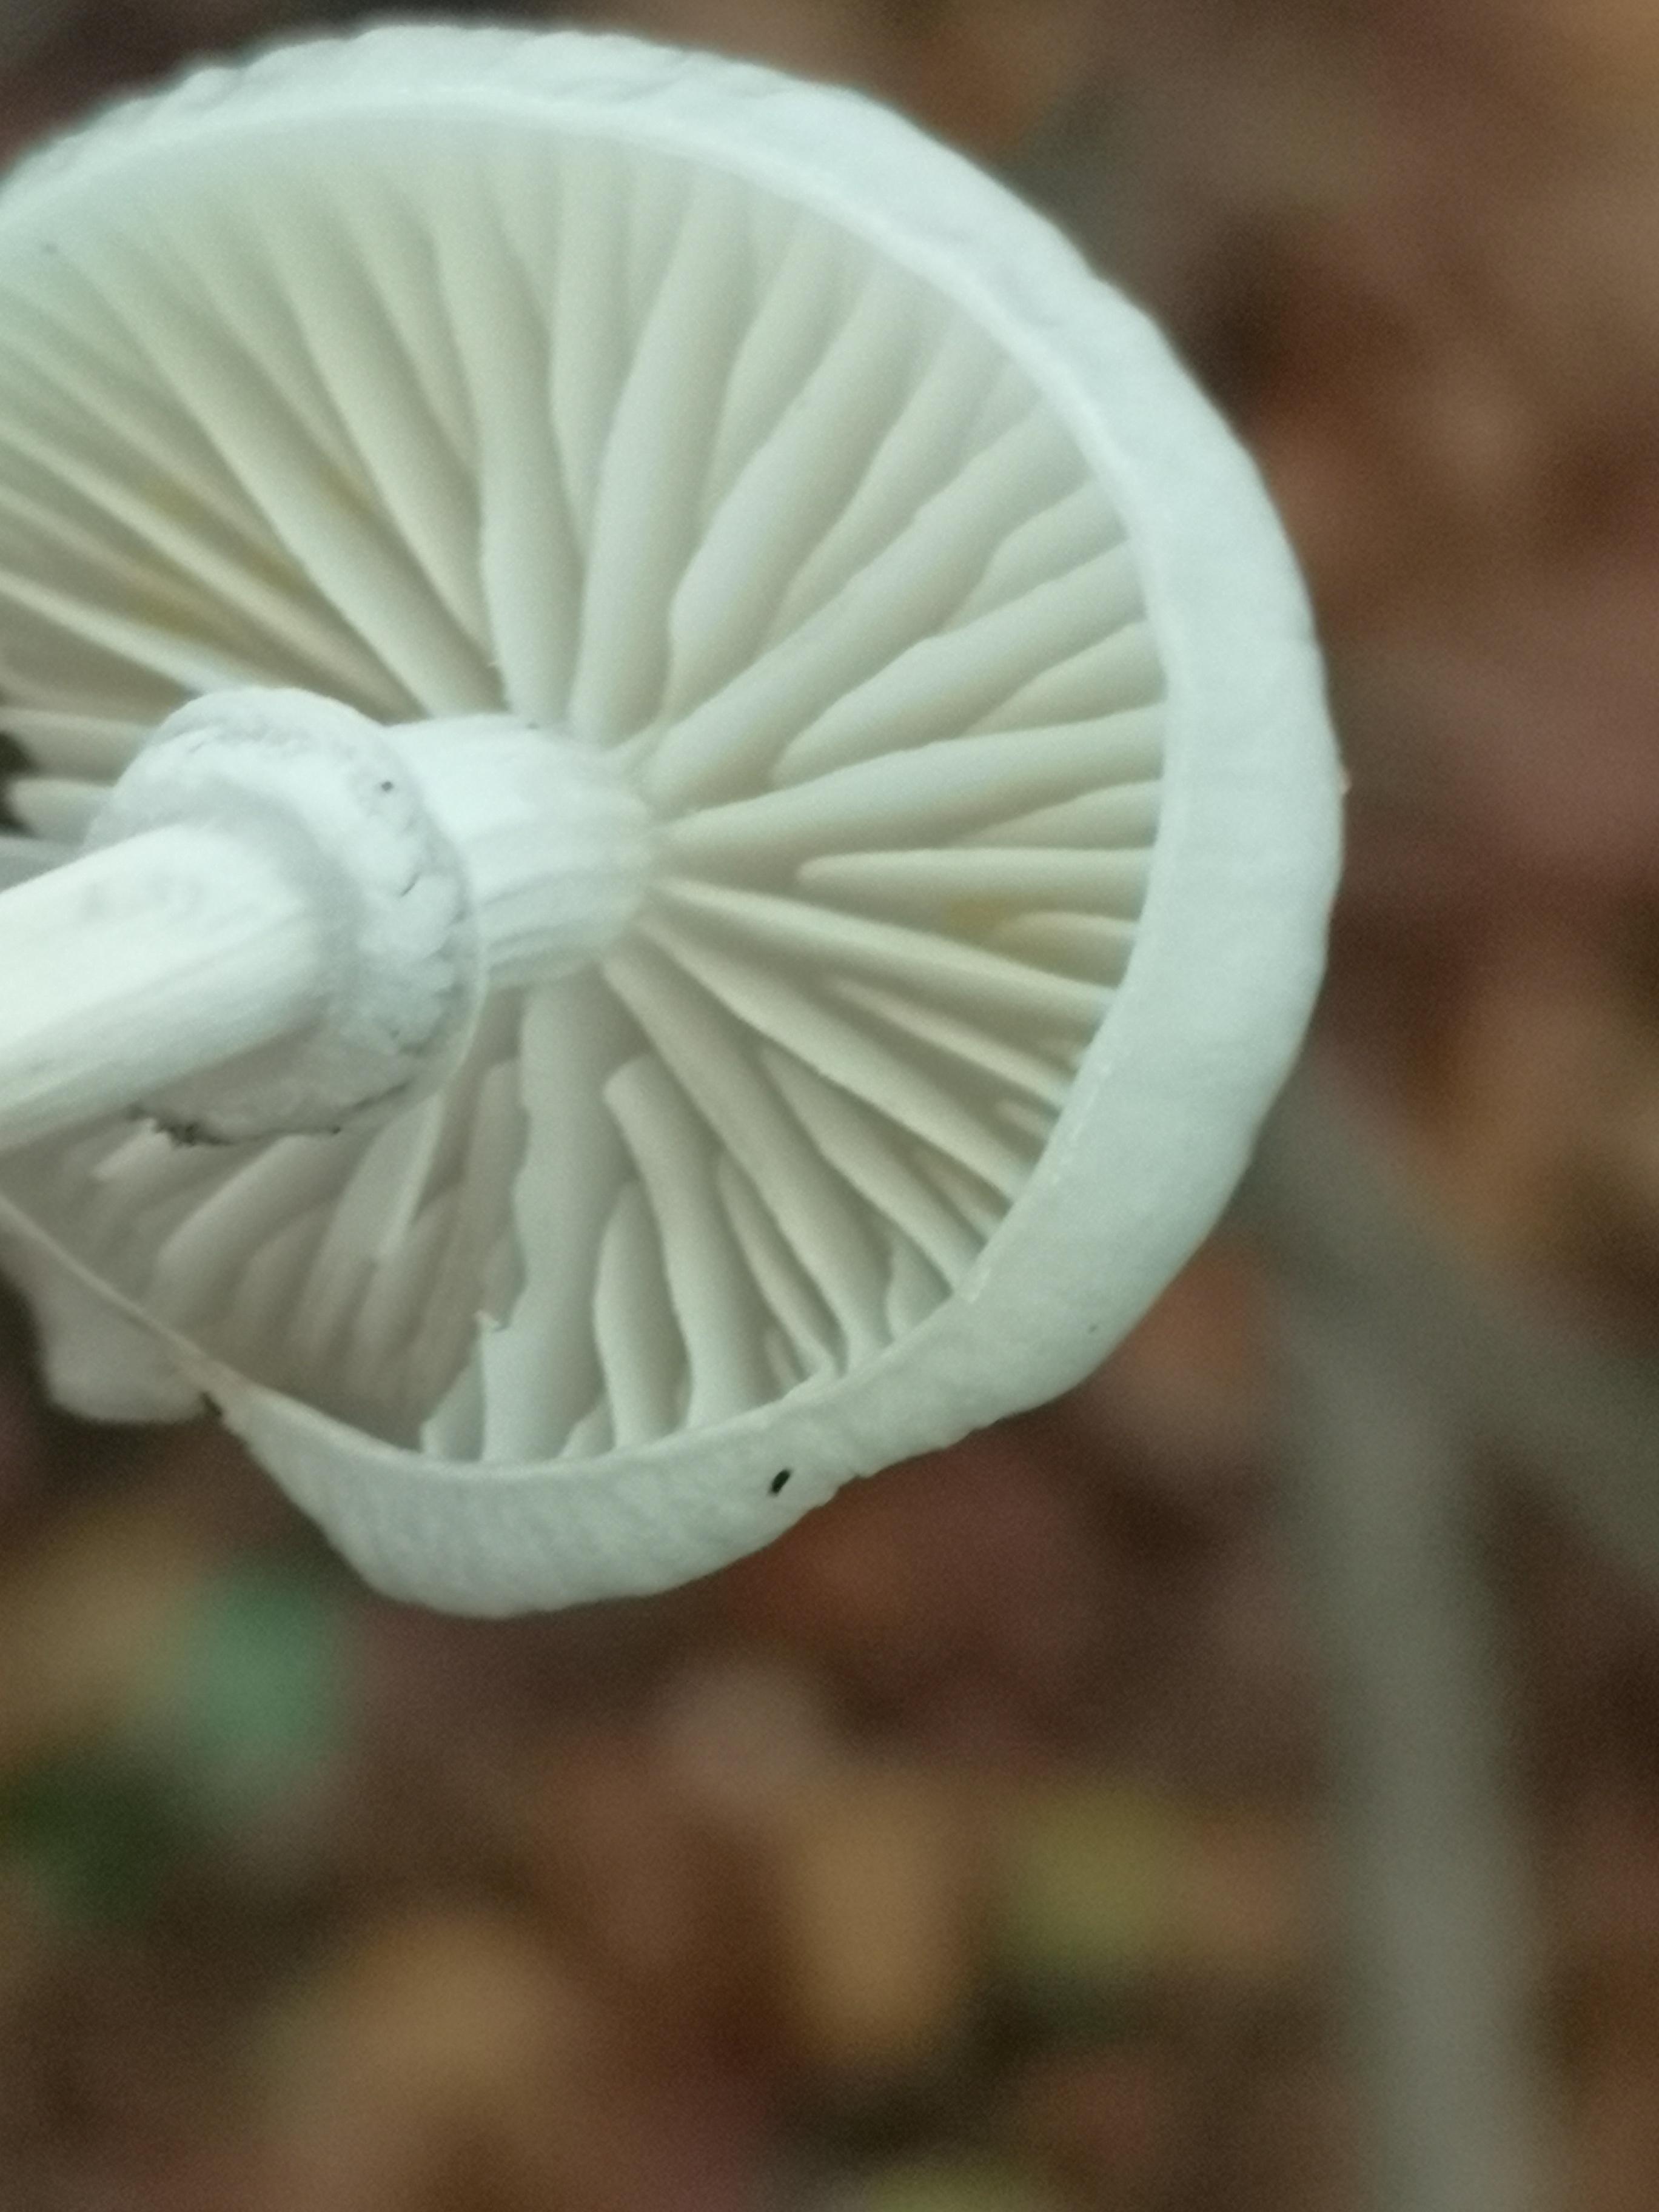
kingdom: Fungi
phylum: Basidiomycota
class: Agaricomycetes
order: Agaricales
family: Physalacriaceae
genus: Mucidula
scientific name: Mucidula mucida
